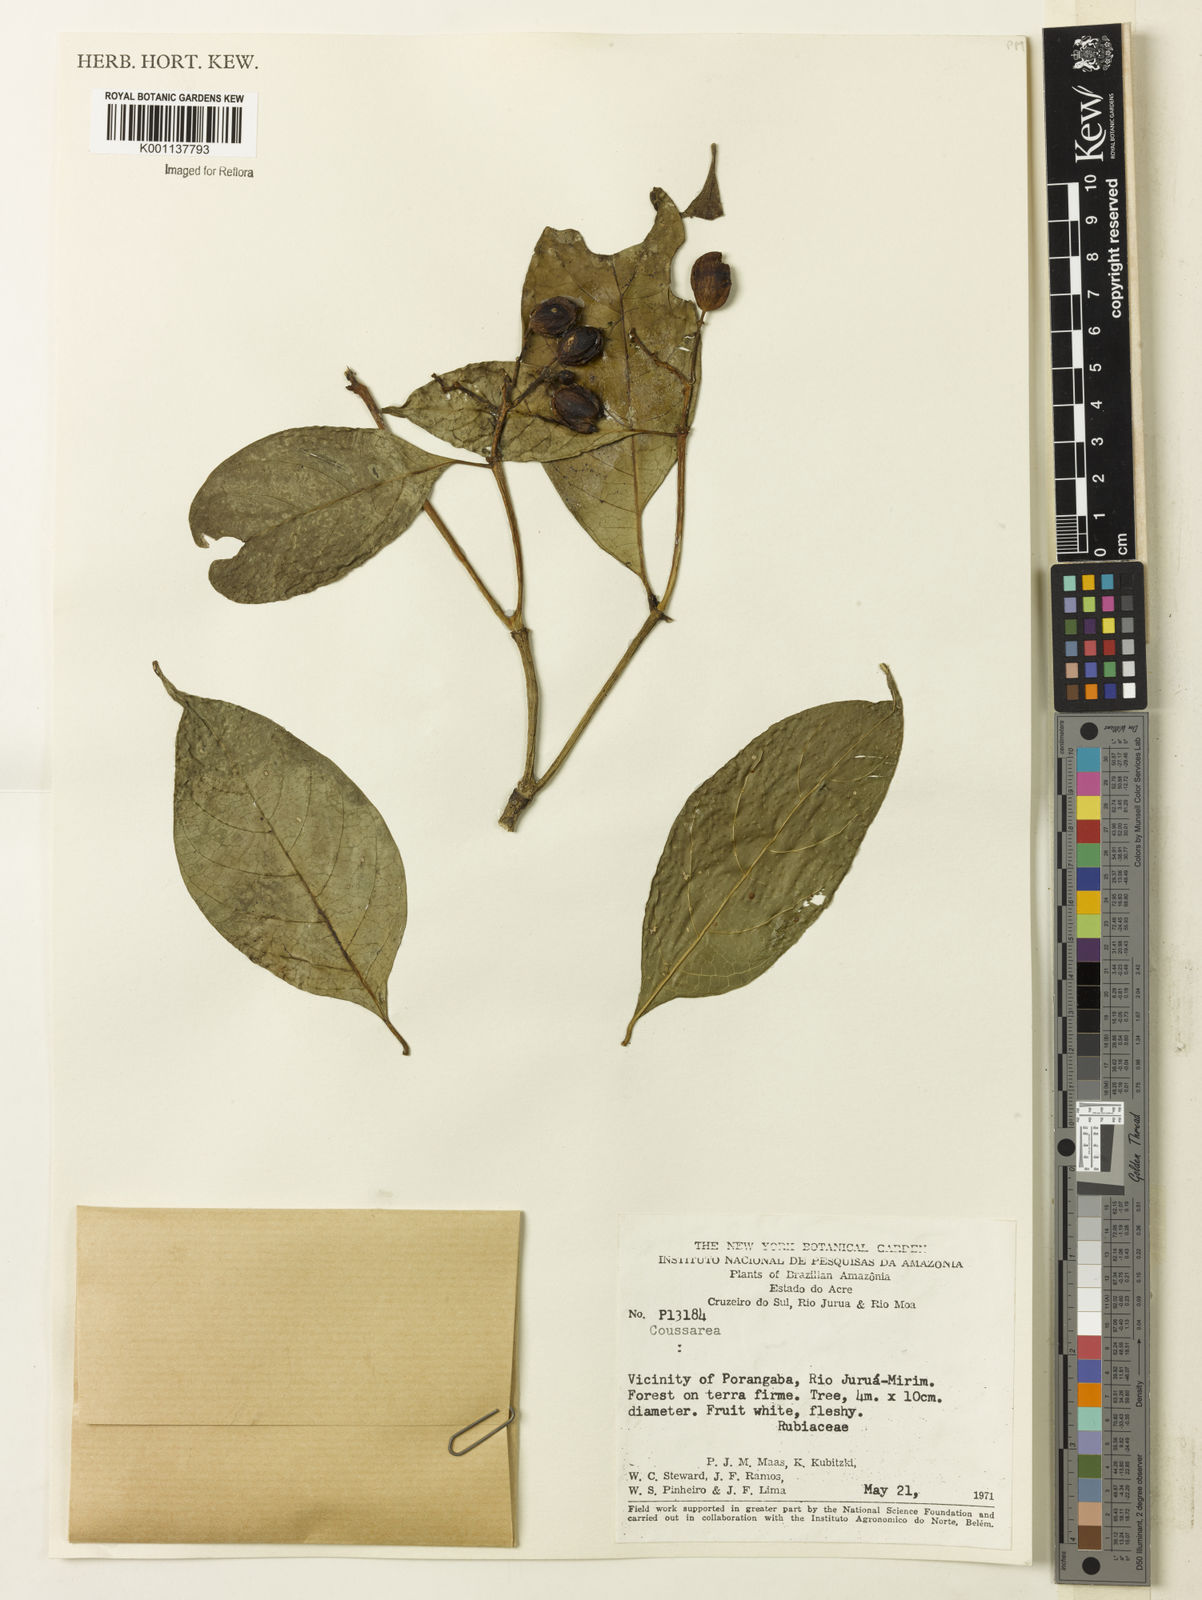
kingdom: Plantae
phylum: Tracheophyta
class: Magnoliopsida
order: Gentianales
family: Rubiaceae
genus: Coussarea
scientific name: Coussarea
